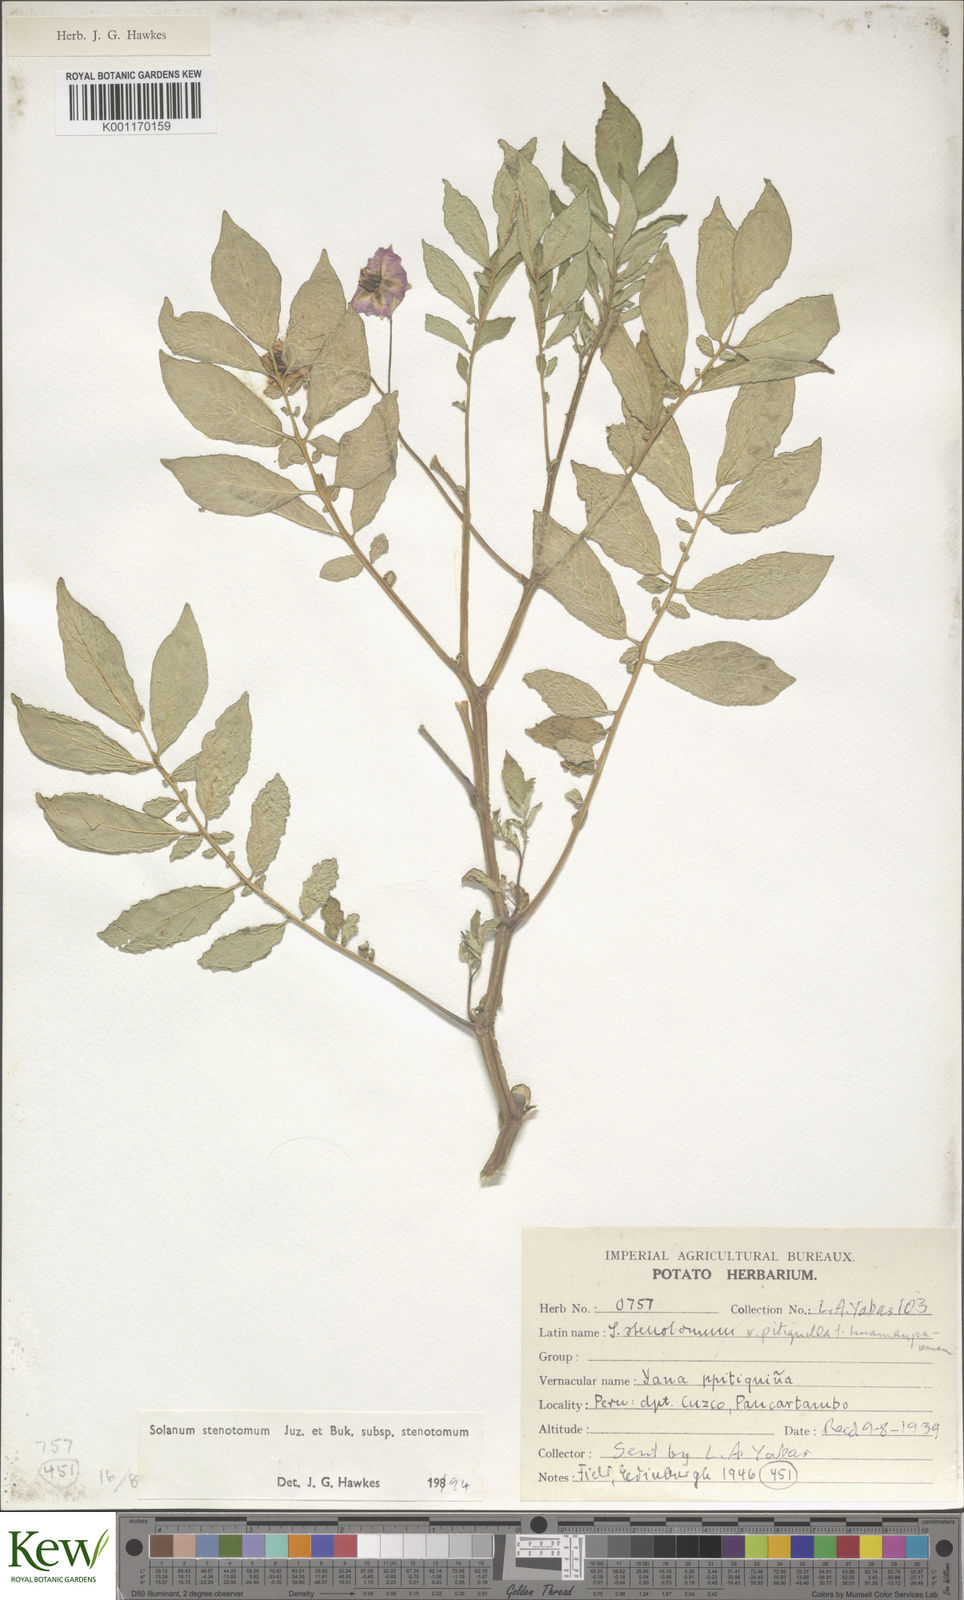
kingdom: Plantae
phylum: Tracheophyta
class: Magnoliopsida
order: Solanales
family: Solanaceae
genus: Solanum
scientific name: Solanum tuberosum
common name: Potato
